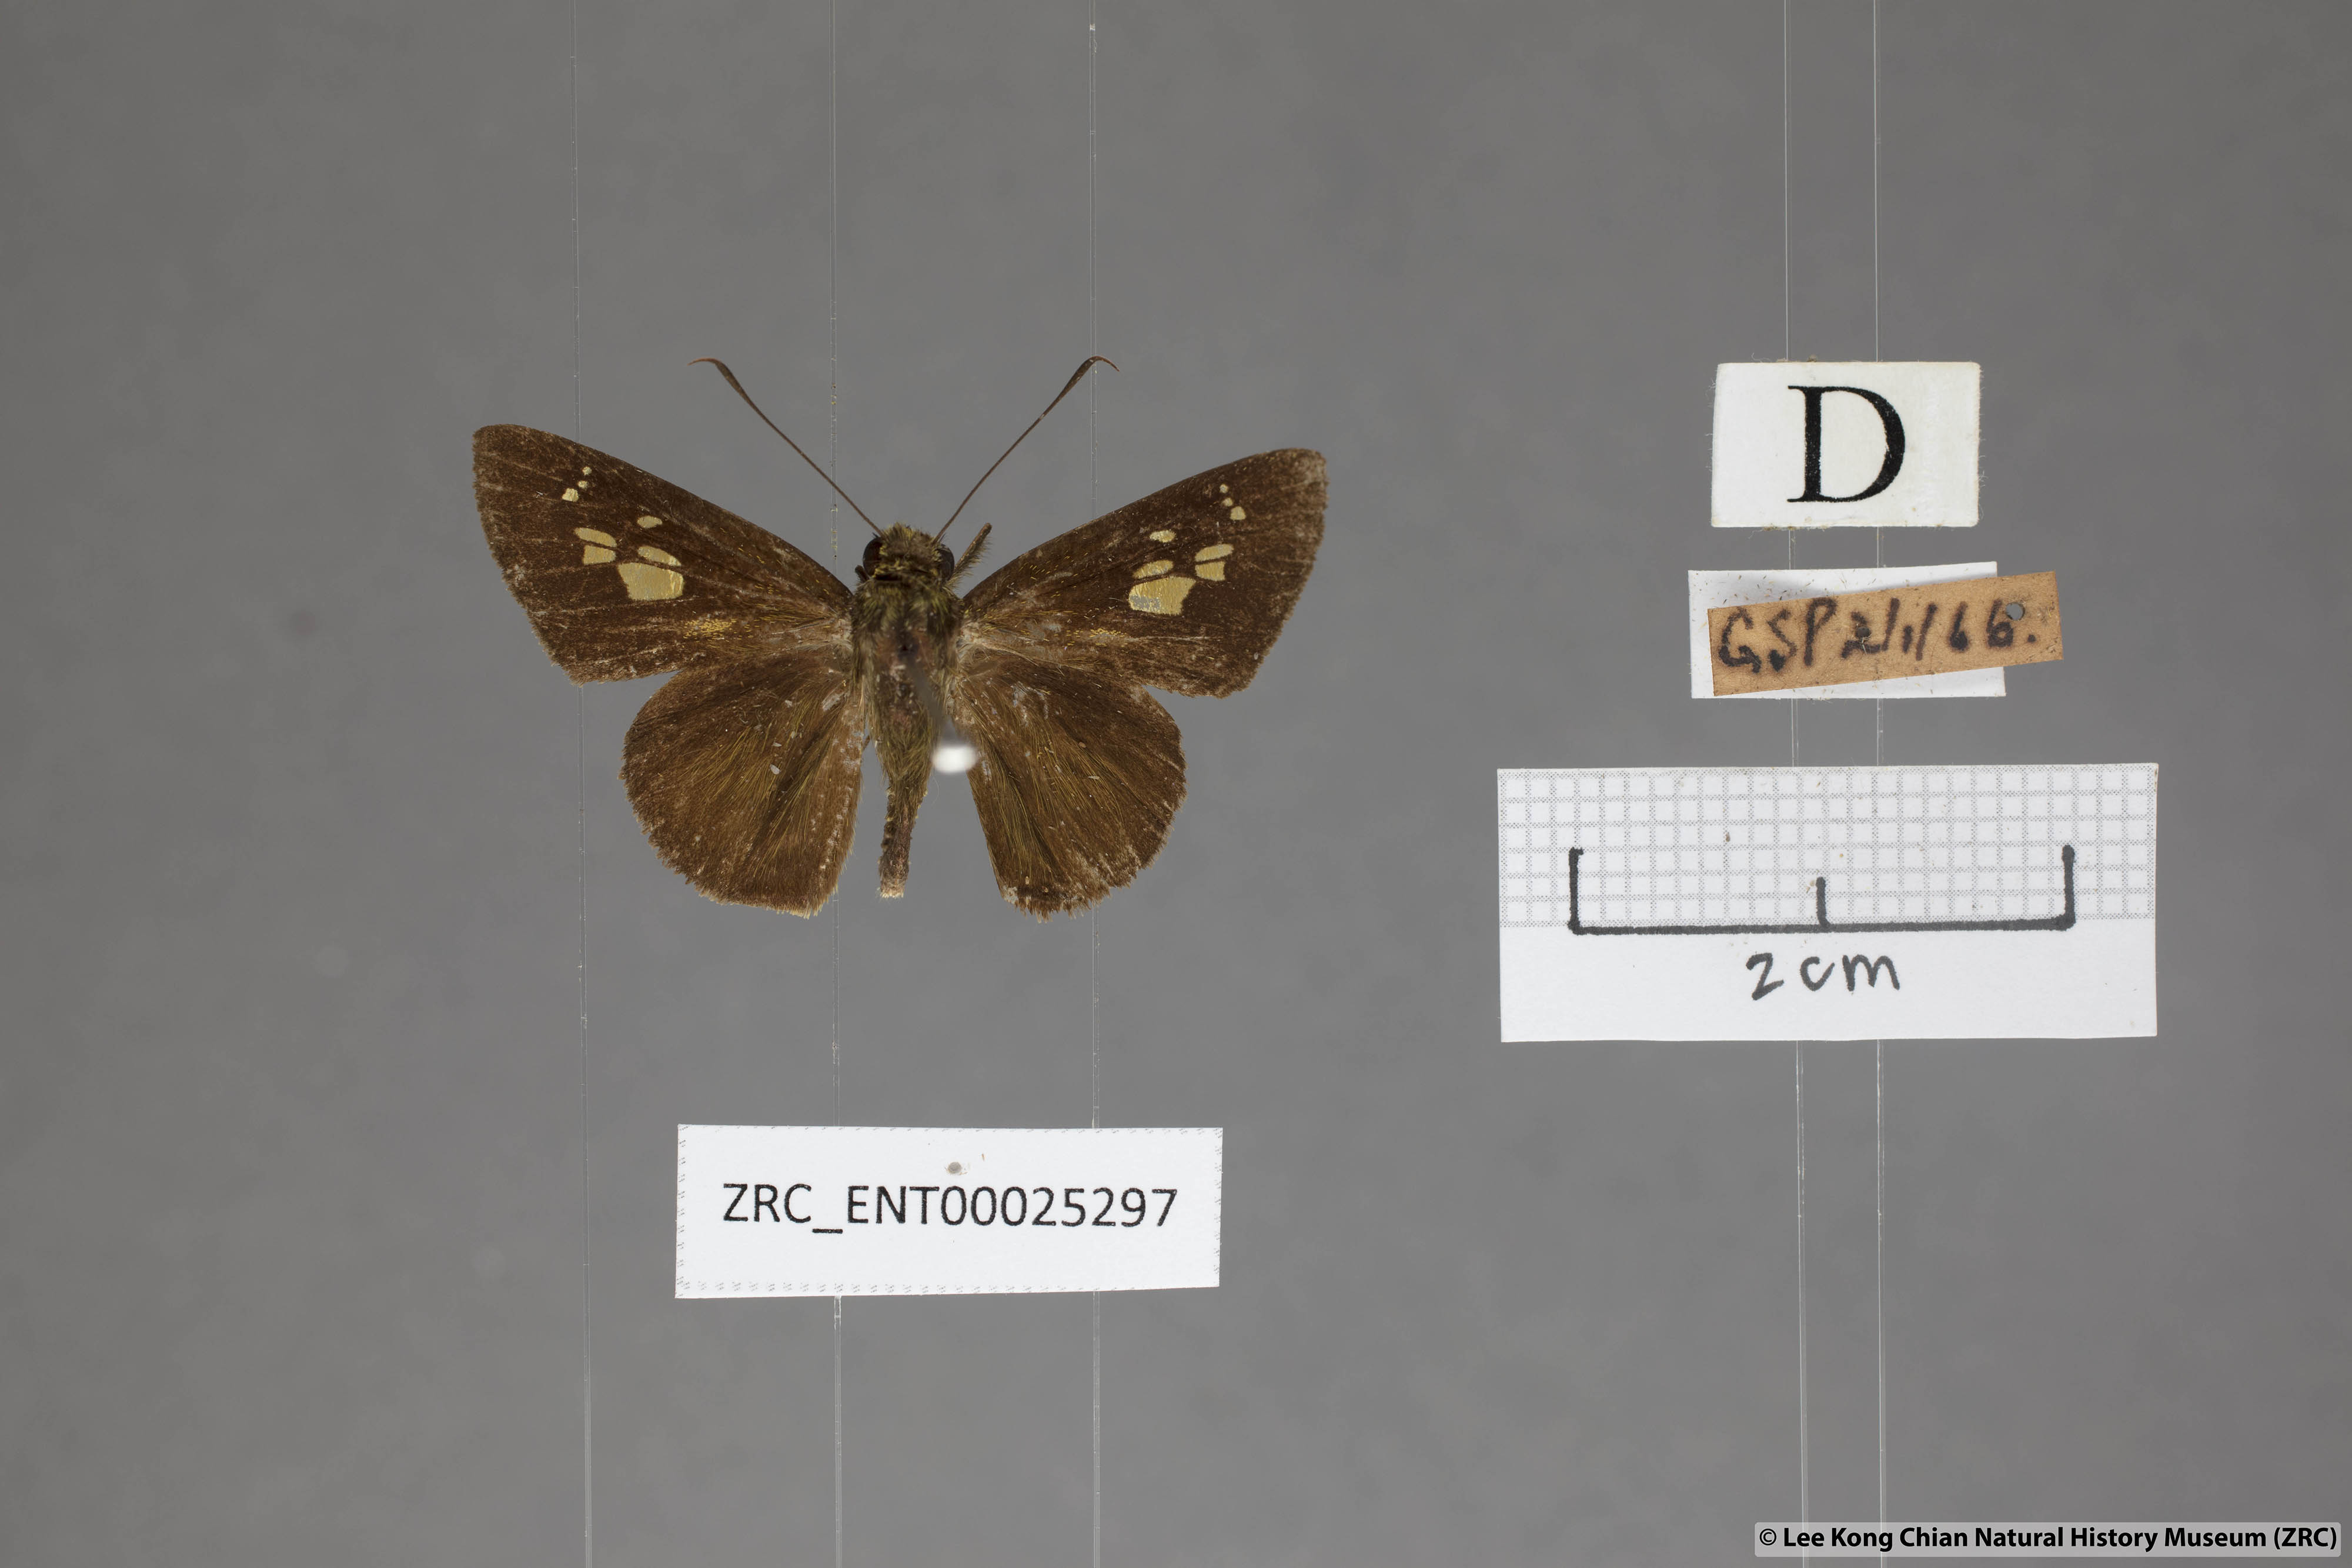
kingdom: Animalia
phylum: Arthropoda
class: Insecta
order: Lepidoptera
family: Hesperiidae
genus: Pemara
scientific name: Pemara pugnans
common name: Pugnacious lancer
